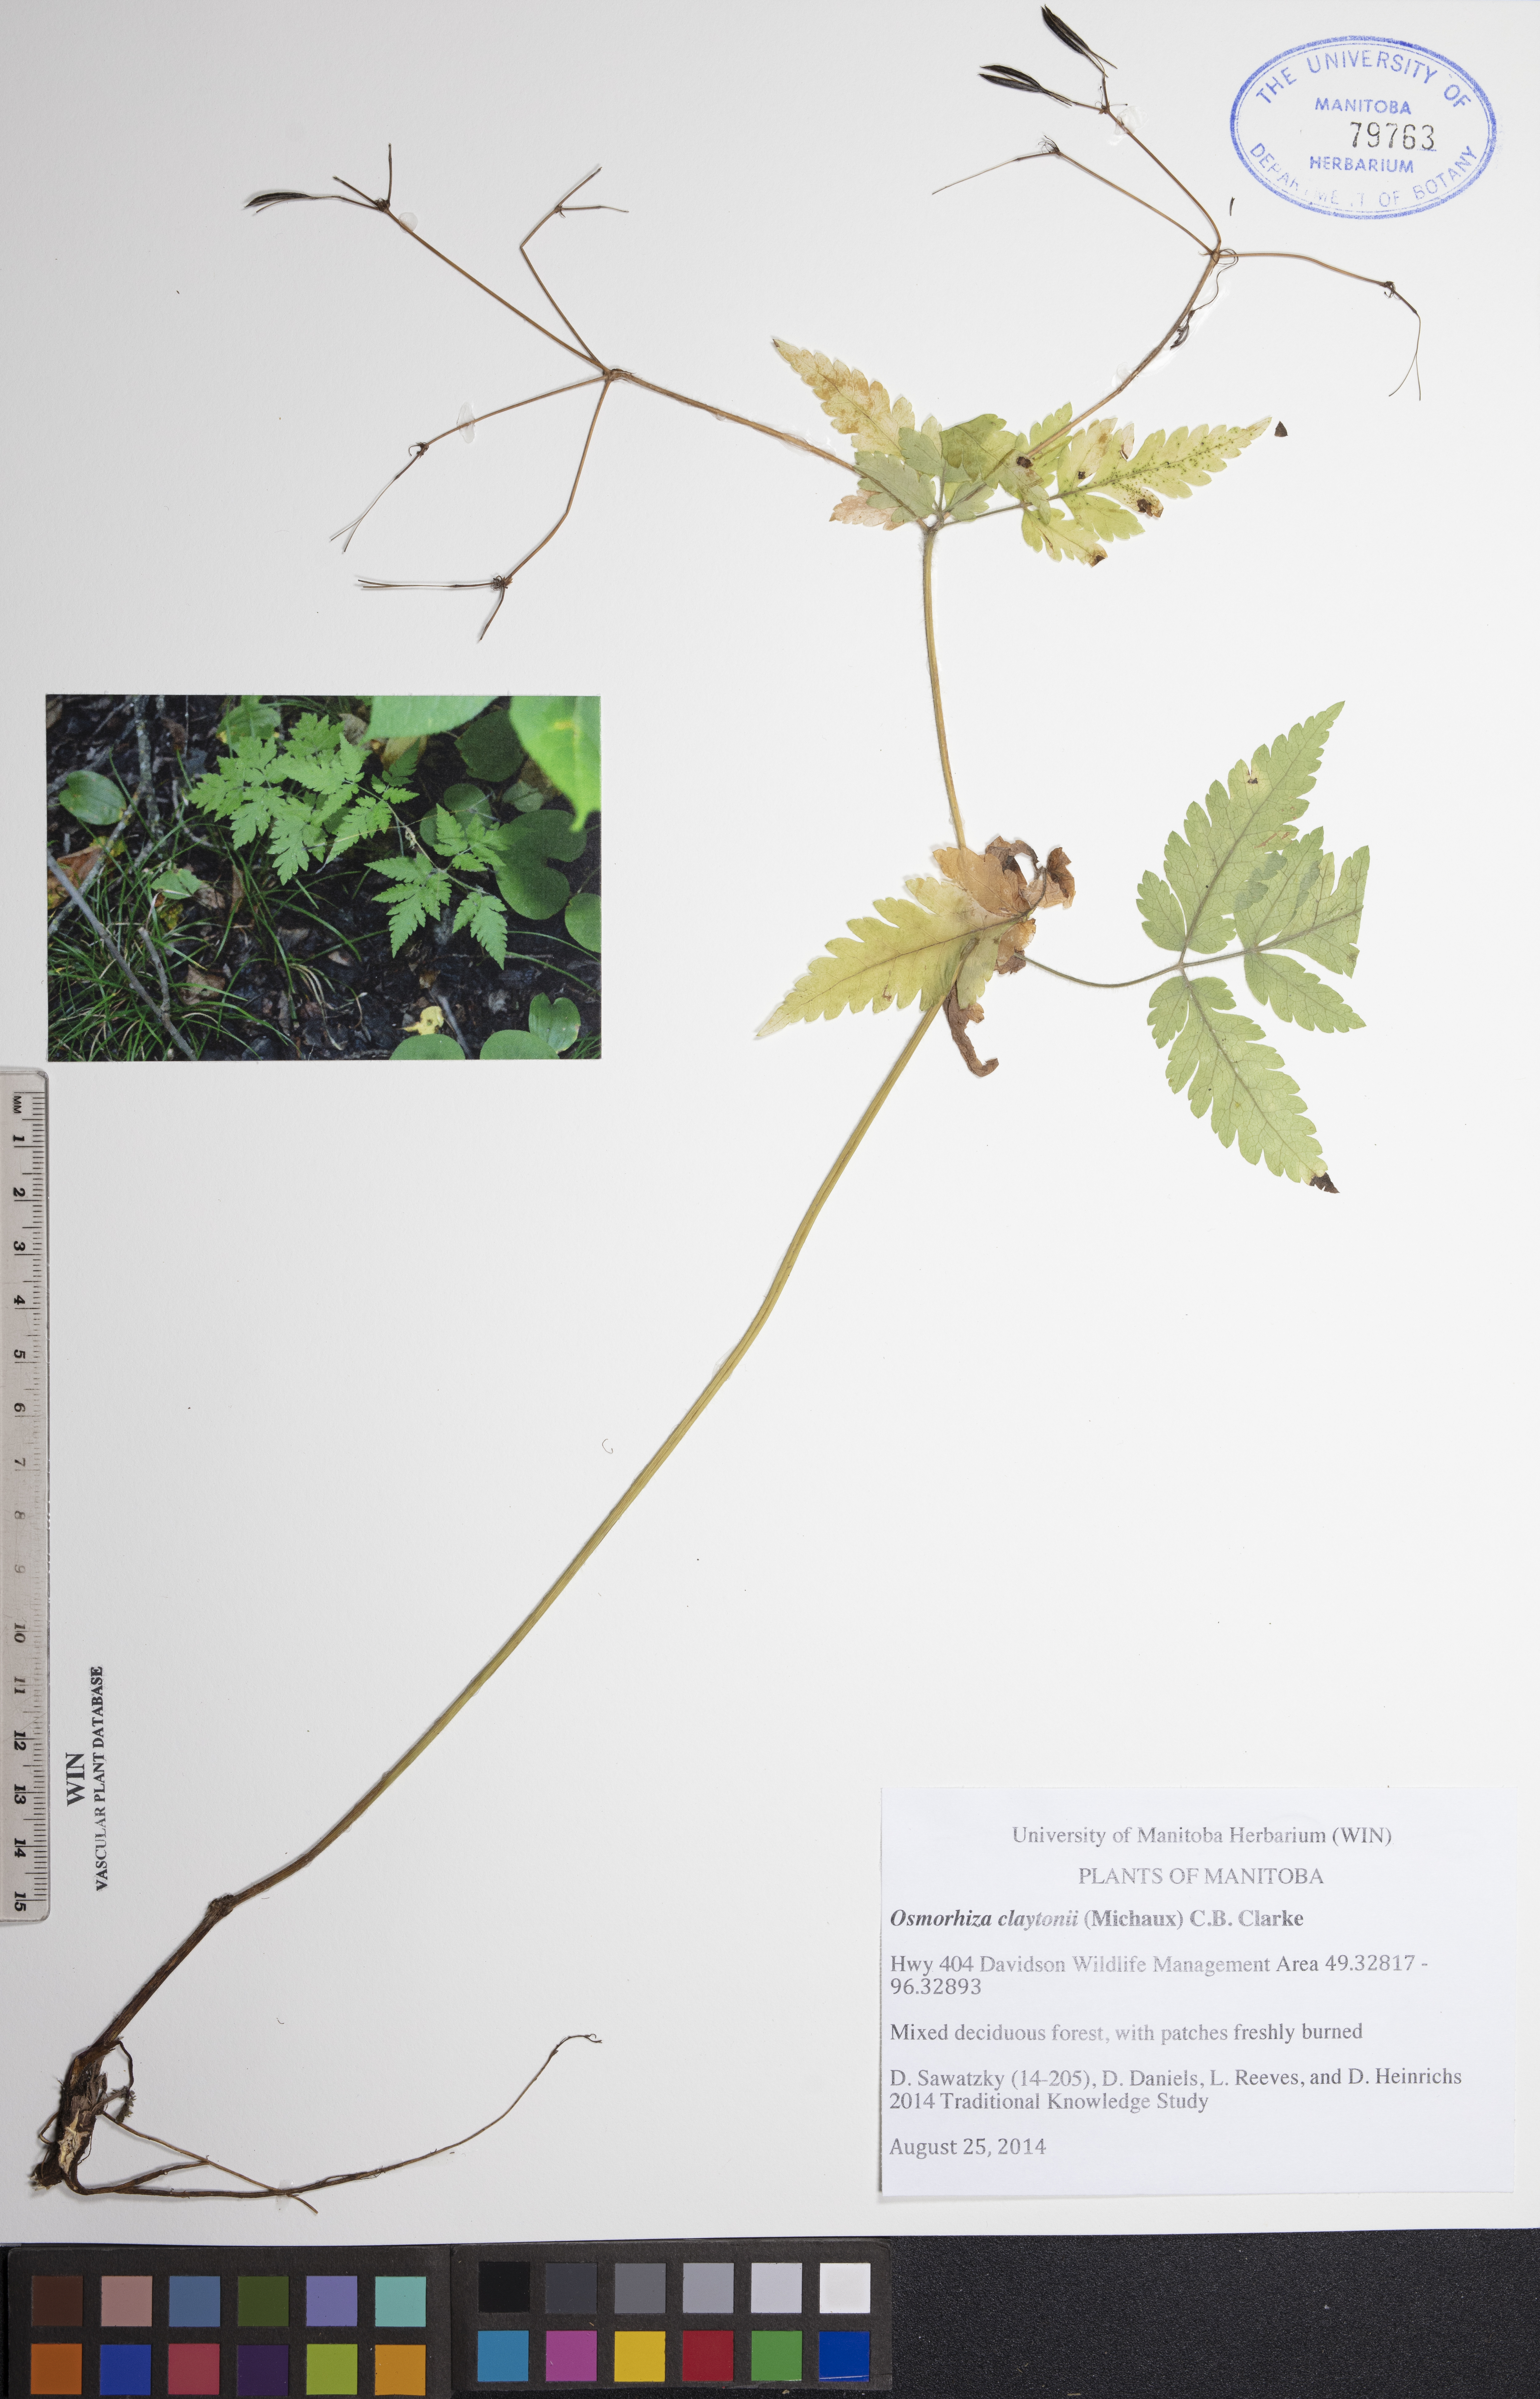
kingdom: Plantae
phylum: Tracheophyta
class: Magnoliopsida
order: Apiales
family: Apiaceae
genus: Osmorhiza
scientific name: Osmorhiza claytonii
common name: Hairy sweet cicely
